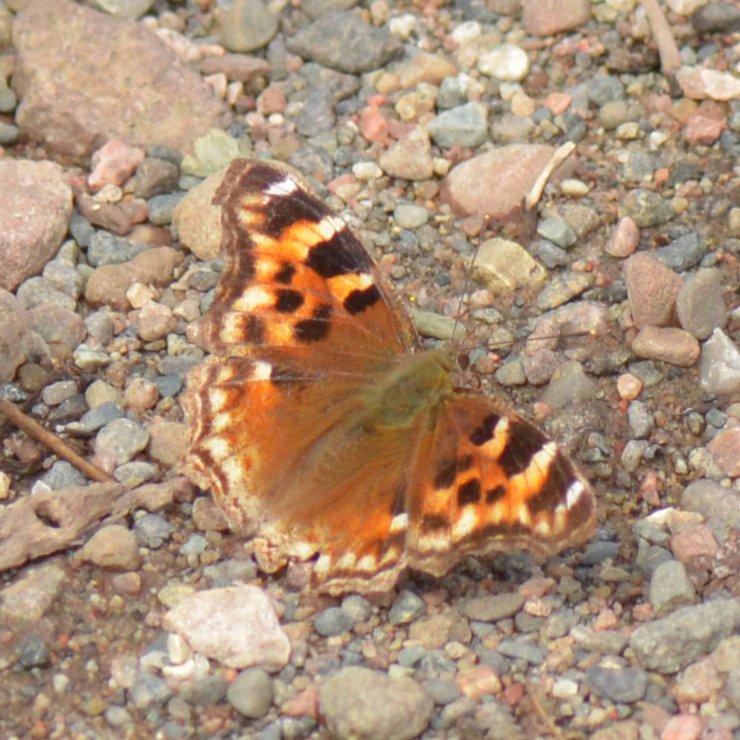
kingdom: Animalia
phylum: Arthropoda
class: Insecta
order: Lepidoptera
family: Nymphalidae
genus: Polygonia
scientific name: Polygonia vaualbum
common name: Compton Tortoiseshell
